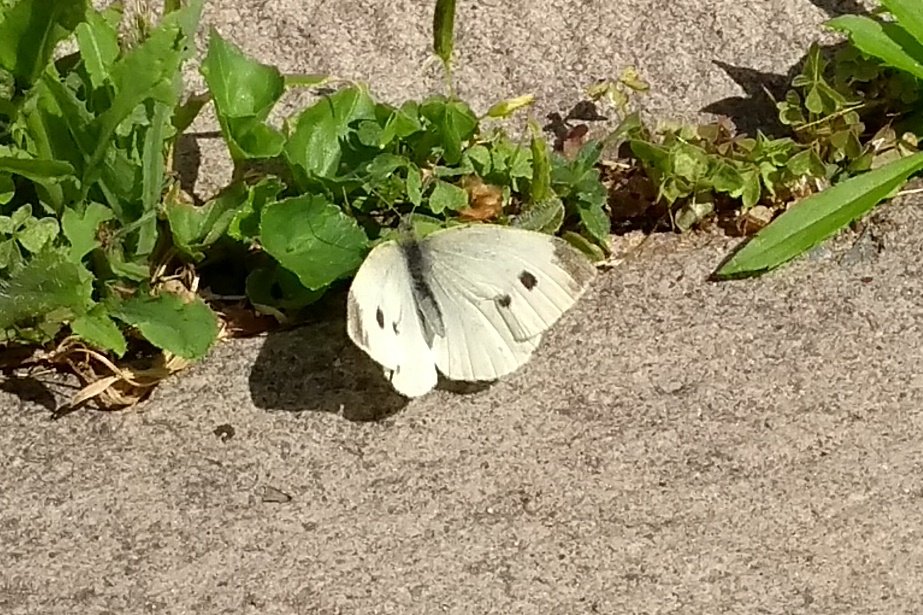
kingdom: Animalia
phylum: Arthropoda
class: Insecta
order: Lepidoptera
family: Pieridae
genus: Pieris
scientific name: Pieris rapae
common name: Cabbage White
